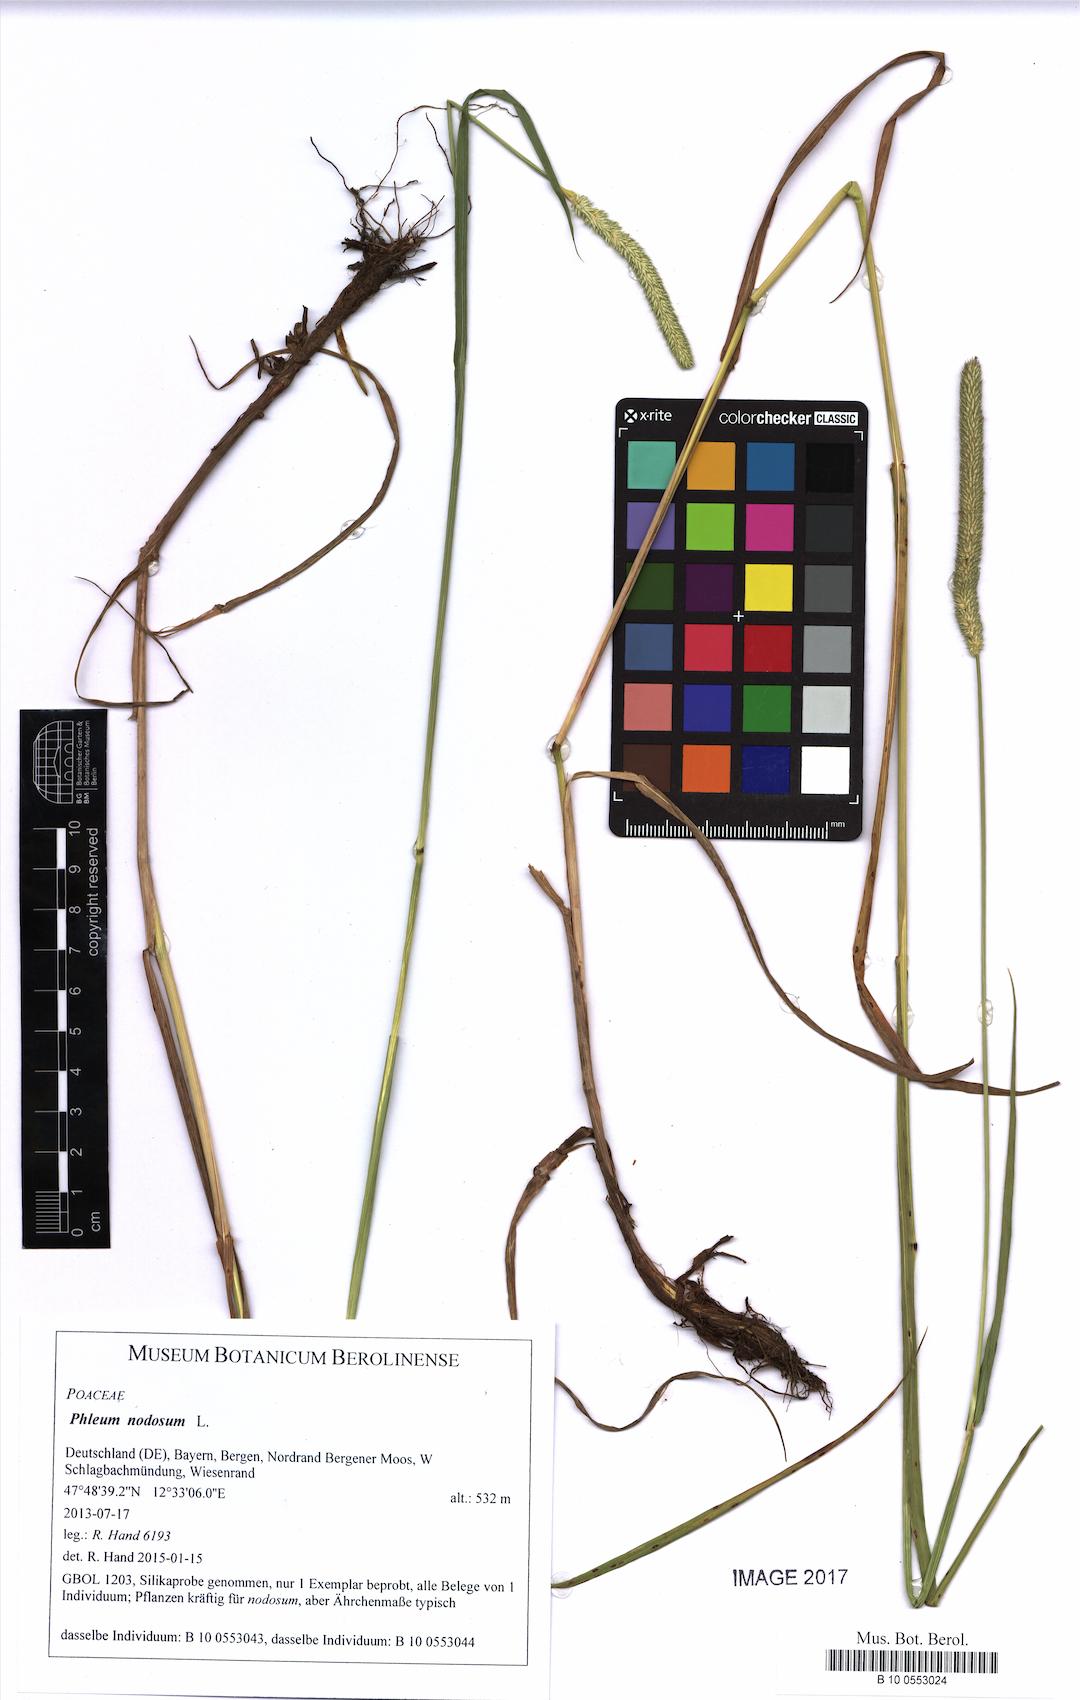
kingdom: Plantae
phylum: Tracheophyta
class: Liliopsida
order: Poales
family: Poaceae
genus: Phleum
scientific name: Phleum pratense
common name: Timothy grass
